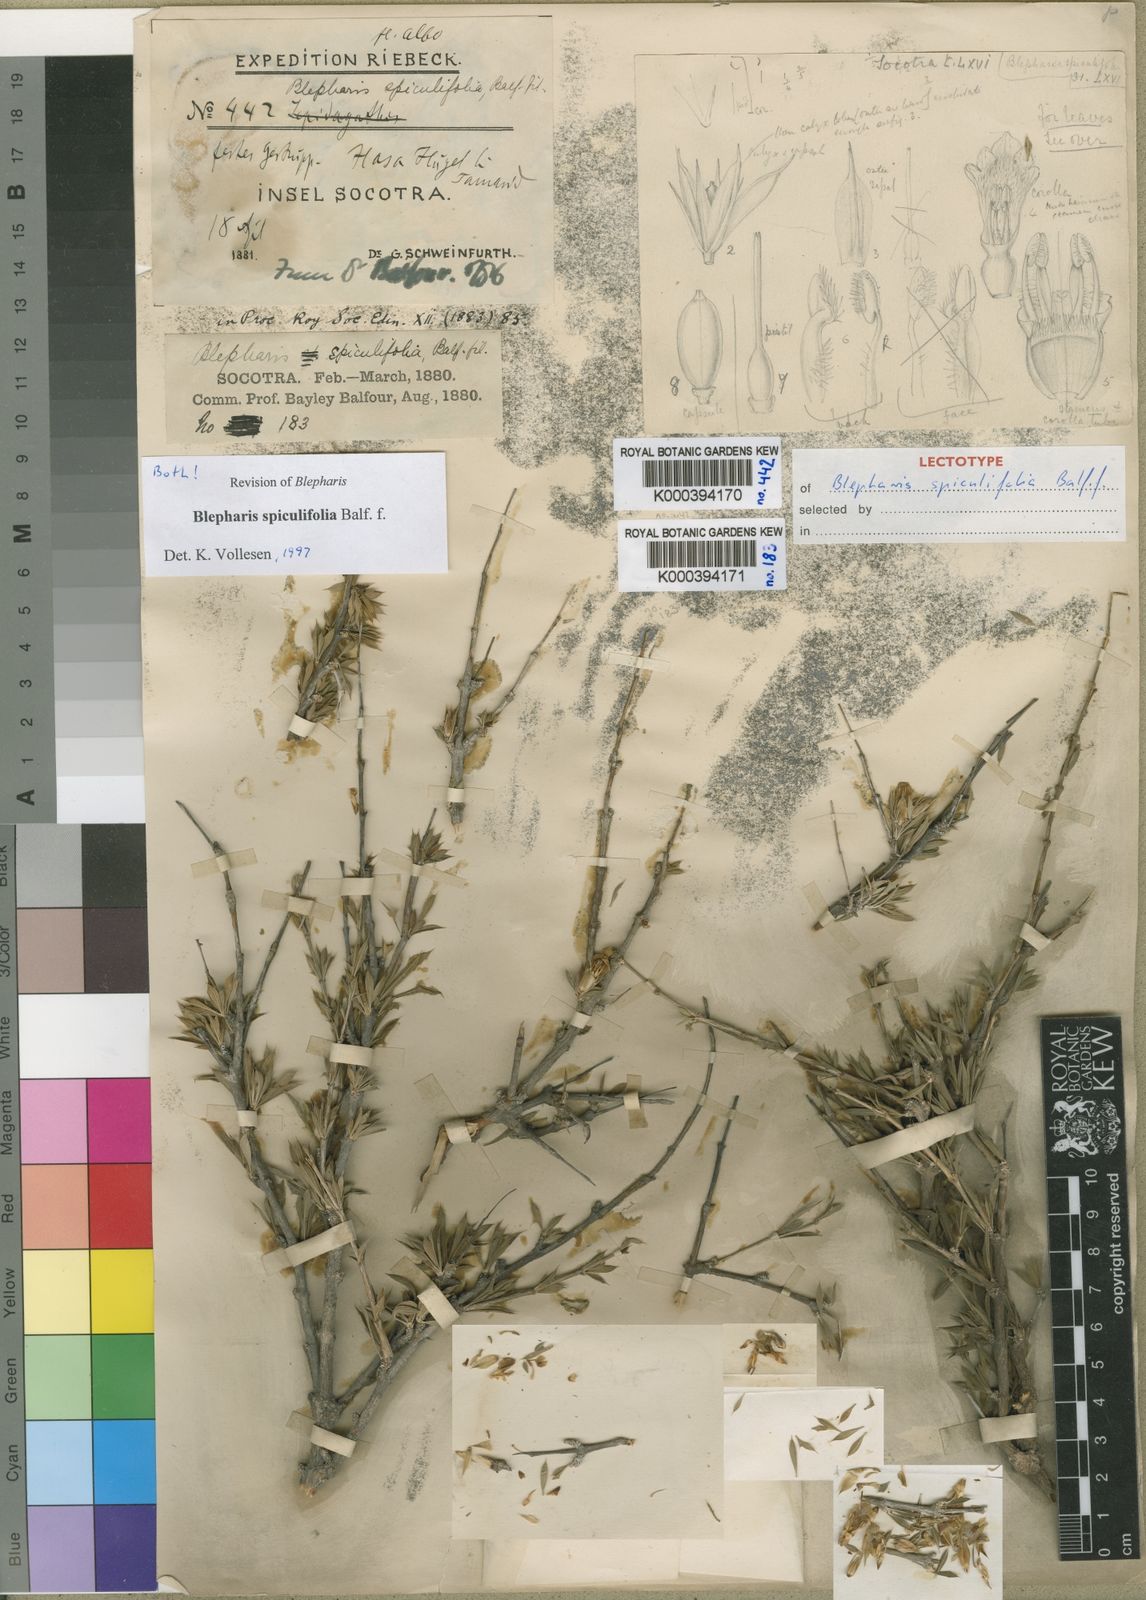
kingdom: Plantae
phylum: Tracheophyta
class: Magnoliopsida
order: Lamiales
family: Acanthaceae
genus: Blepharis
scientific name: Blepharis spiculifolia
